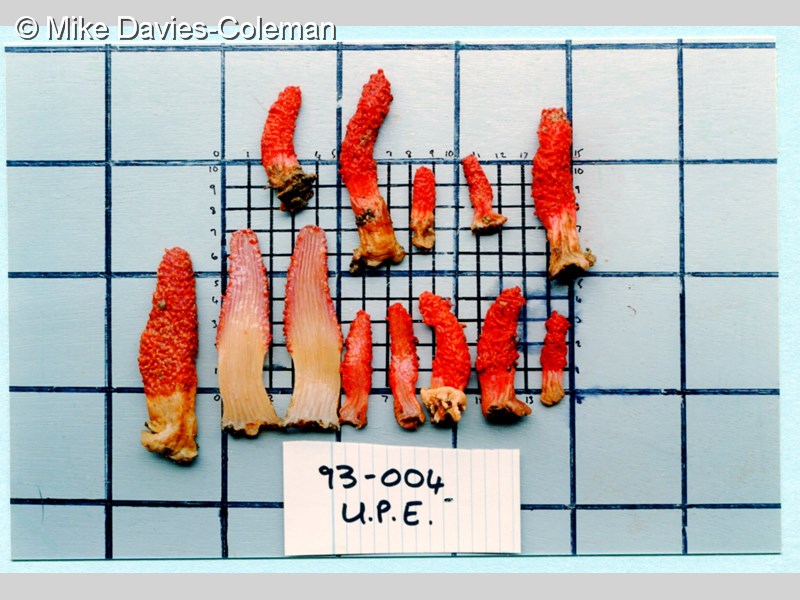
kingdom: Animalia
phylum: Cnidaria
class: Anthozoa
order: Malacalcyonacea
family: Acrophytidae
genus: Pieterfaurea
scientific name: Pieterfaurea khoisaniana
